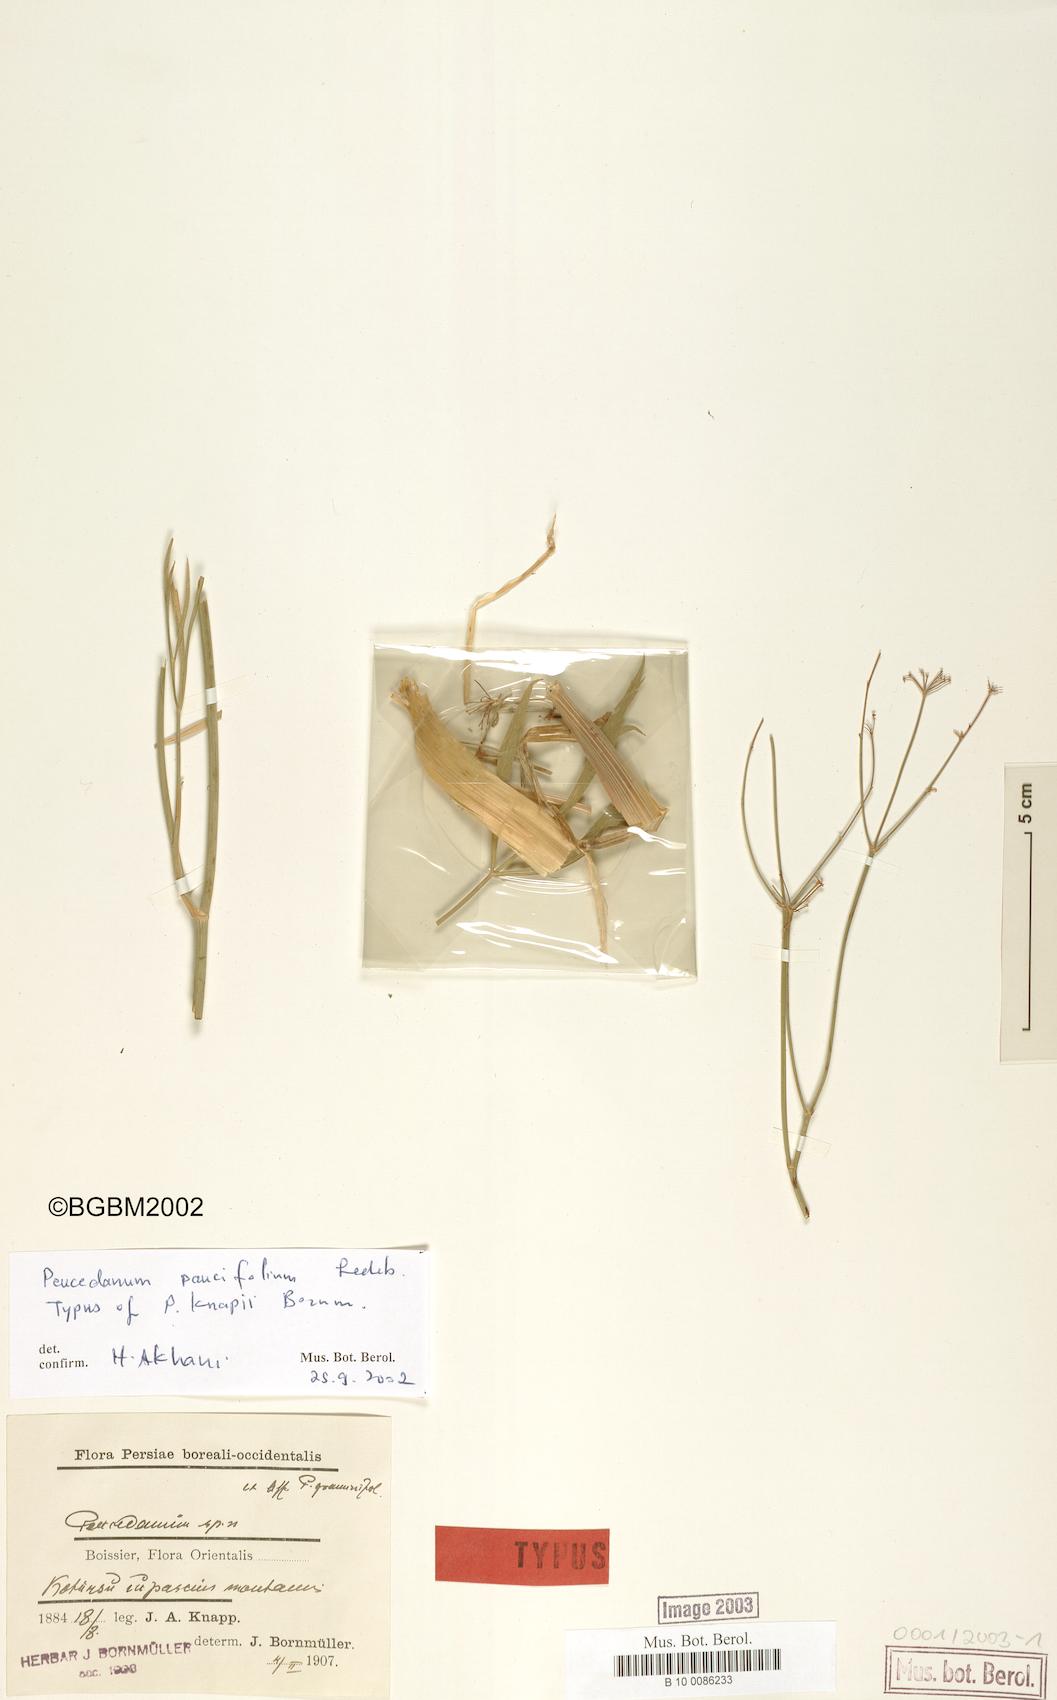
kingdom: Plantae
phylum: Tracheophyta
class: Magnoliopsida
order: Apiales
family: Apiaceae
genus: Dichoropetalum
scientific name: Dichoropetalum seseloides
